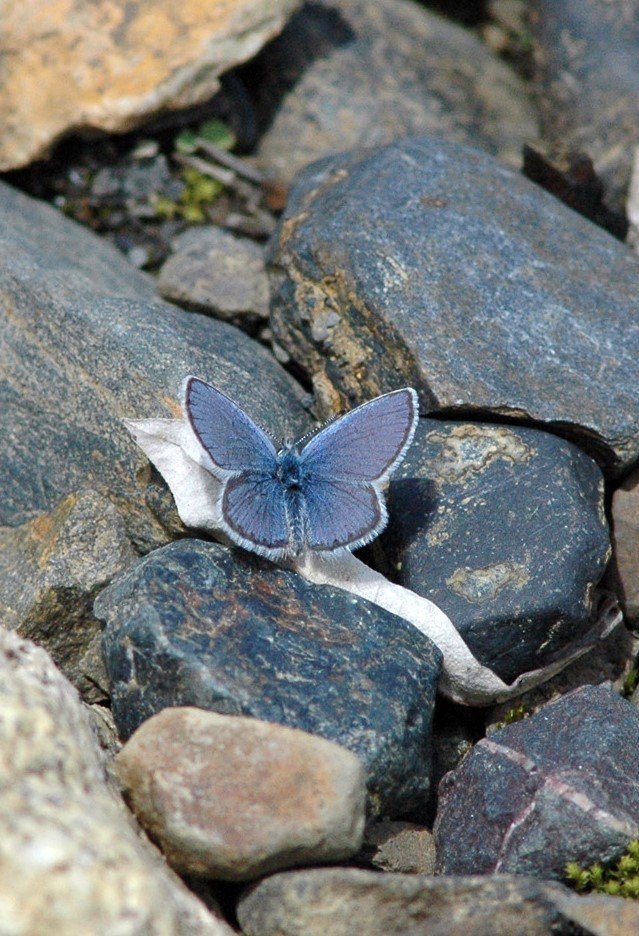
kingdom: Animalia
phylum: Arthropoda
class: Insecta
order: Lepidoptera
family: Lycaenidae
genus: Lycaeides
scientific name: Lycaeides idas
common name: Northern Blue
